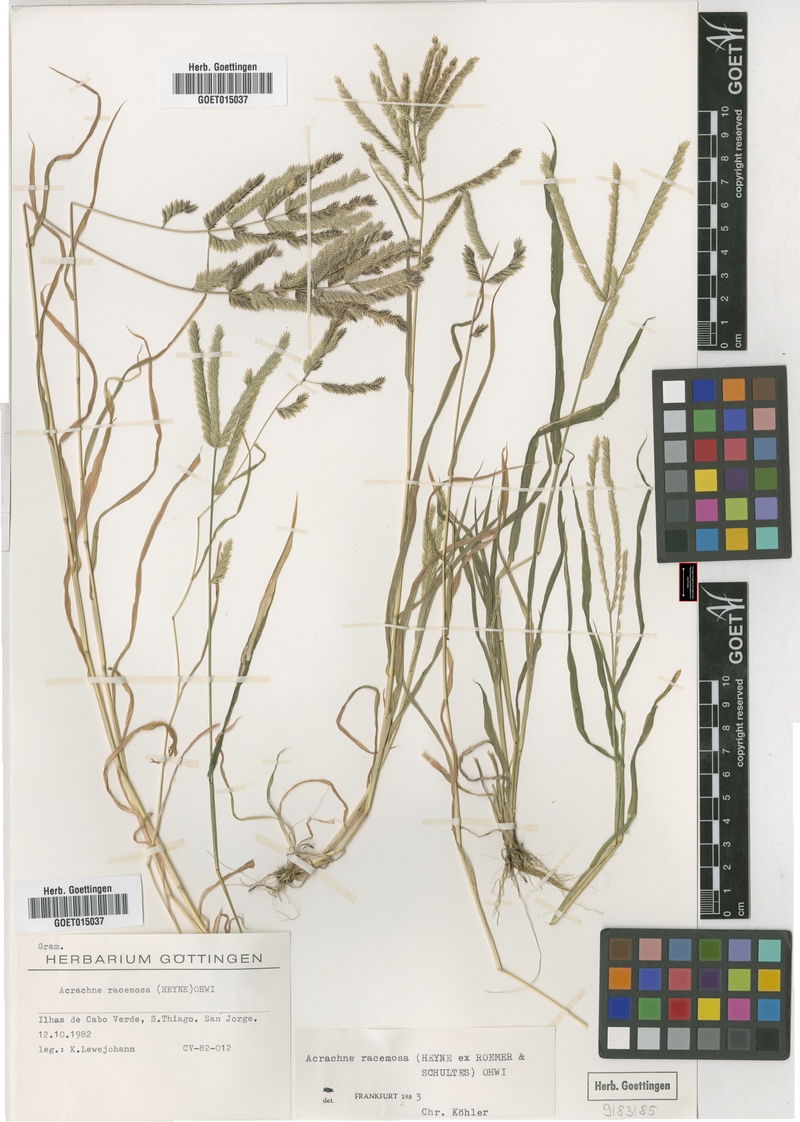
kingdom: Plantae
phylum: Tracheophyta
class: Liliopsida
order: Poales
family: Poaceae
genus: Acrachne
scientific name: Acrachne racemosa
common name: Goosegrass
